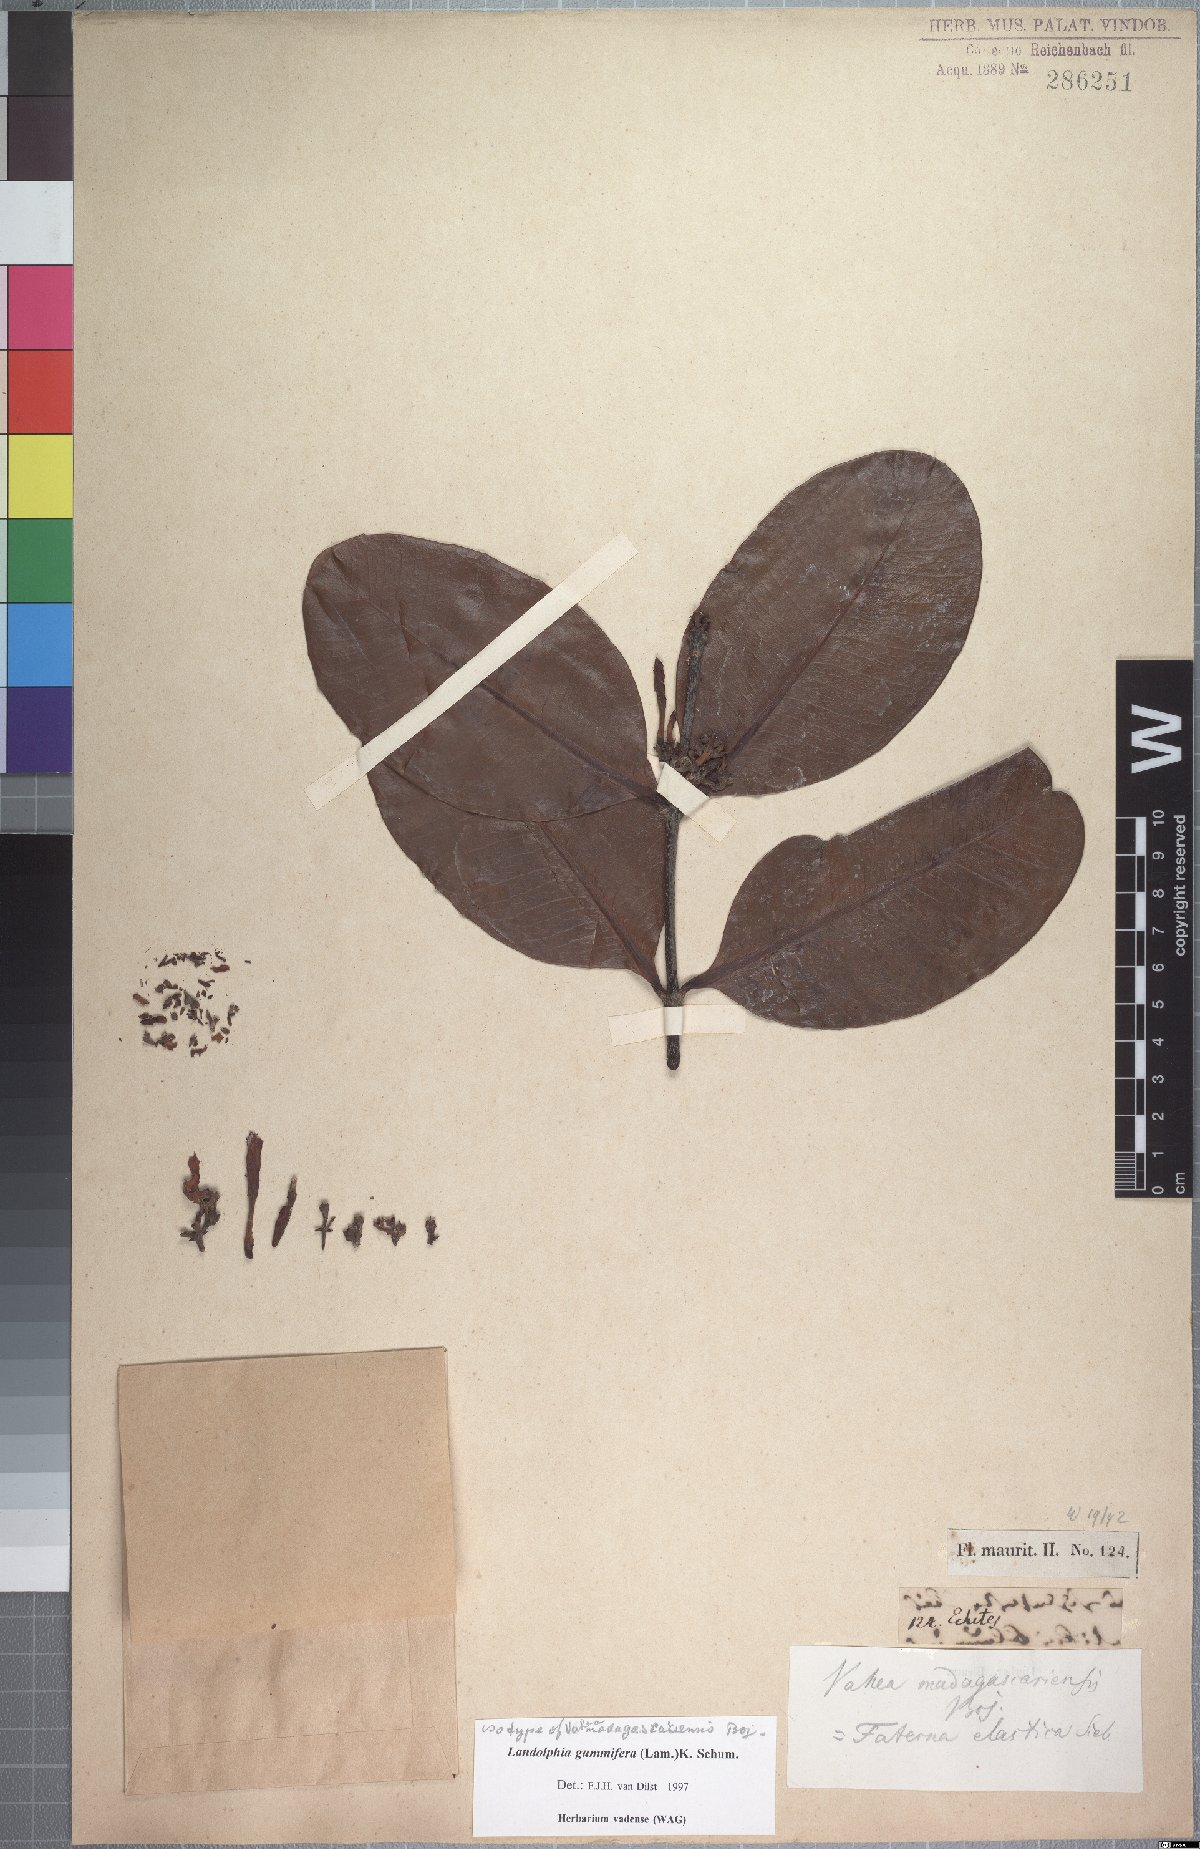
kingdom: Plantae
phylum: Tracheophyta
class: Magnoliopsida
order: Gentianales
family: Apocynaceae
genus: Landolphia
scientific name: Landolphia gummifera
